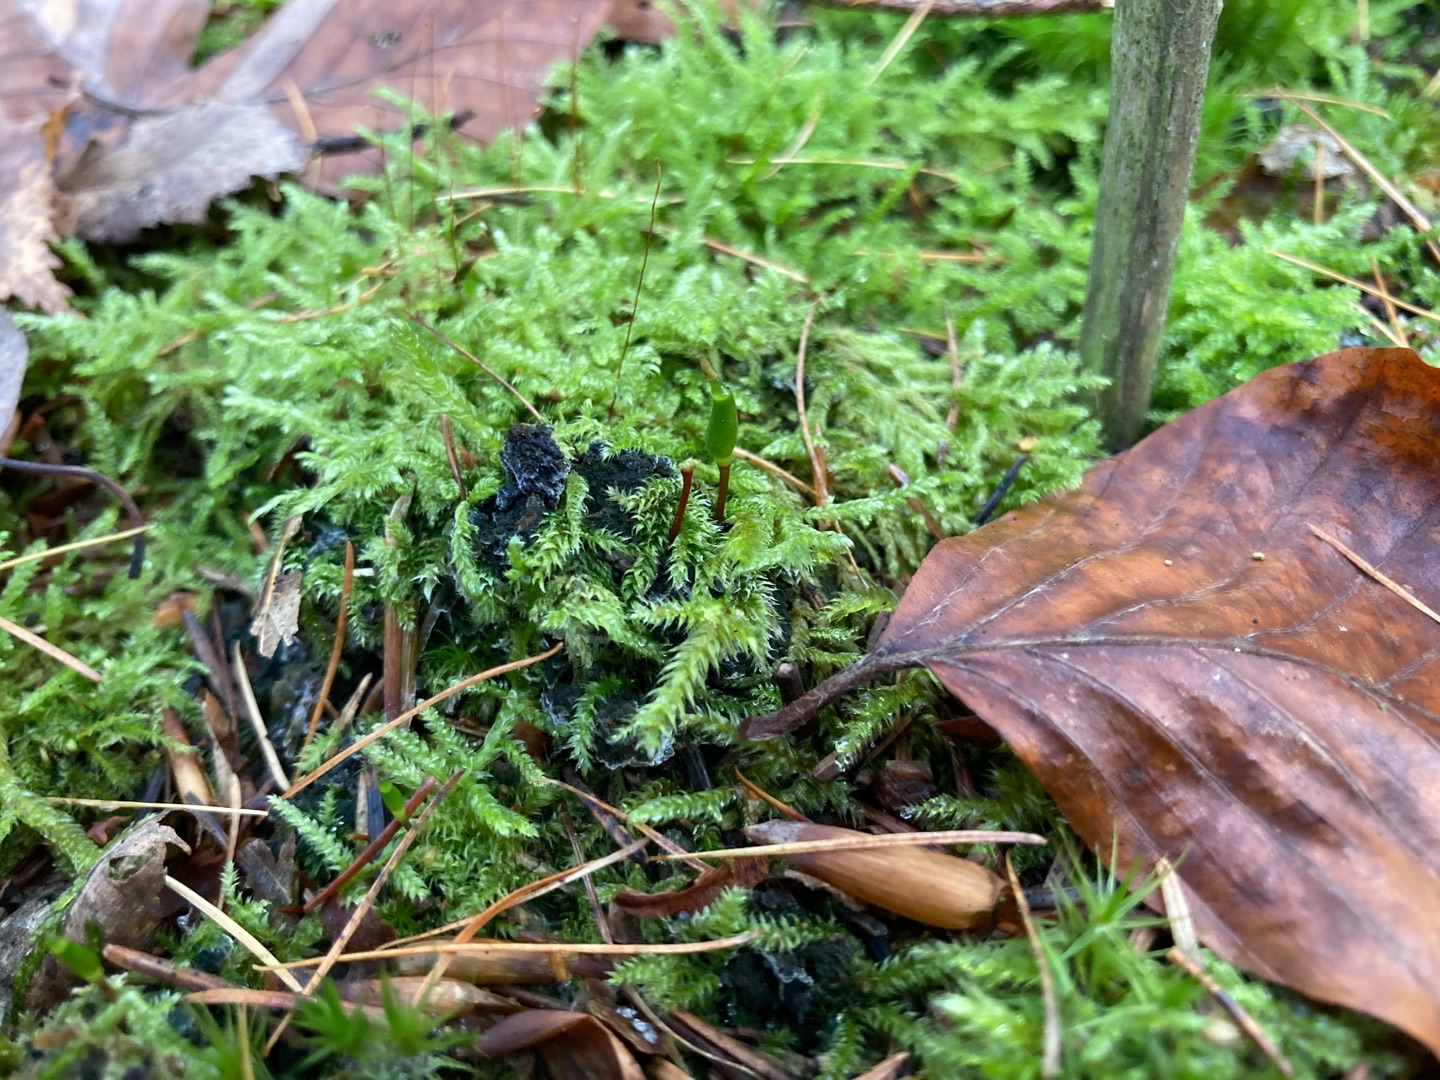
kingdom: Plantae
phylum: Bryophyta
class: Bryopsida
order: Buxbaumiales
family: Buxbaumiaceae
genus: Buxbaumia
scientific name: Buxbaumia viridis
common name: Grøn buxbaumia
